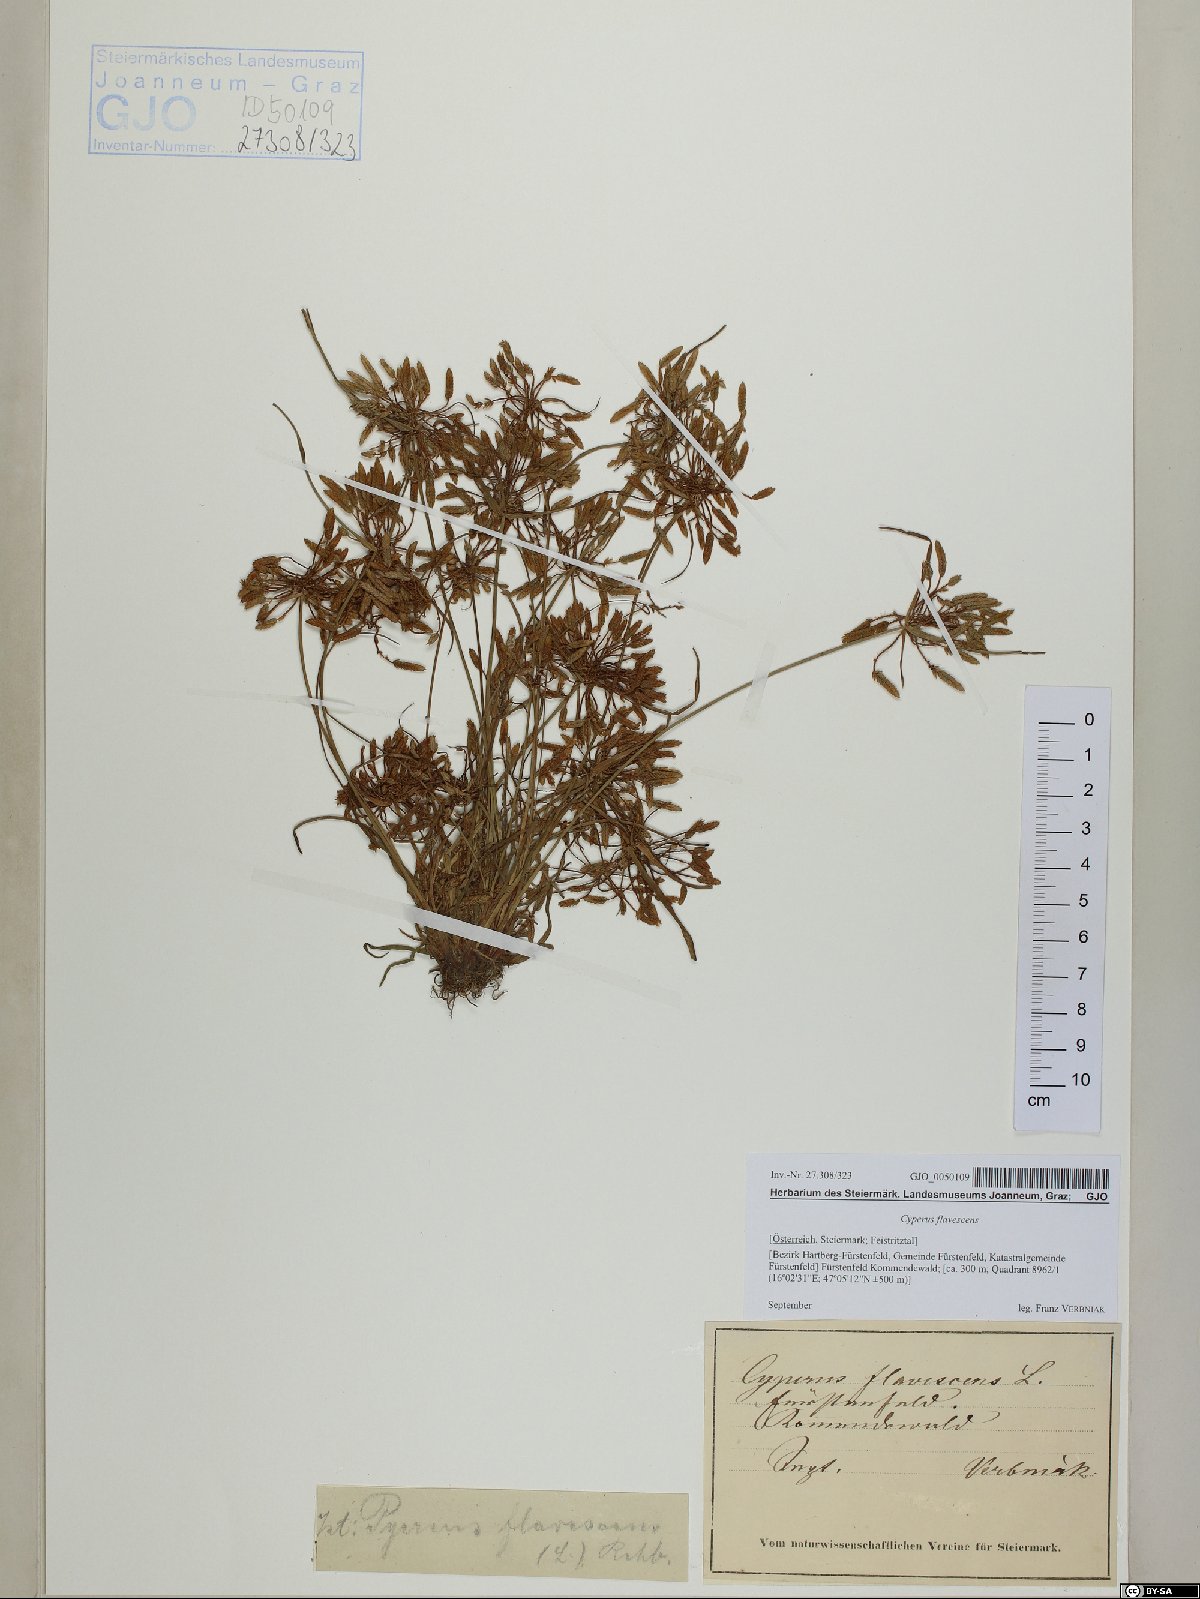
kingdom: Plantae
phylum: Tracheophyta
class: Liliopsida
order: Poales
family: Cyperaceae
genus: Cyperus
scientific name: Cyperus flavescens
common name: Yellow galingale
